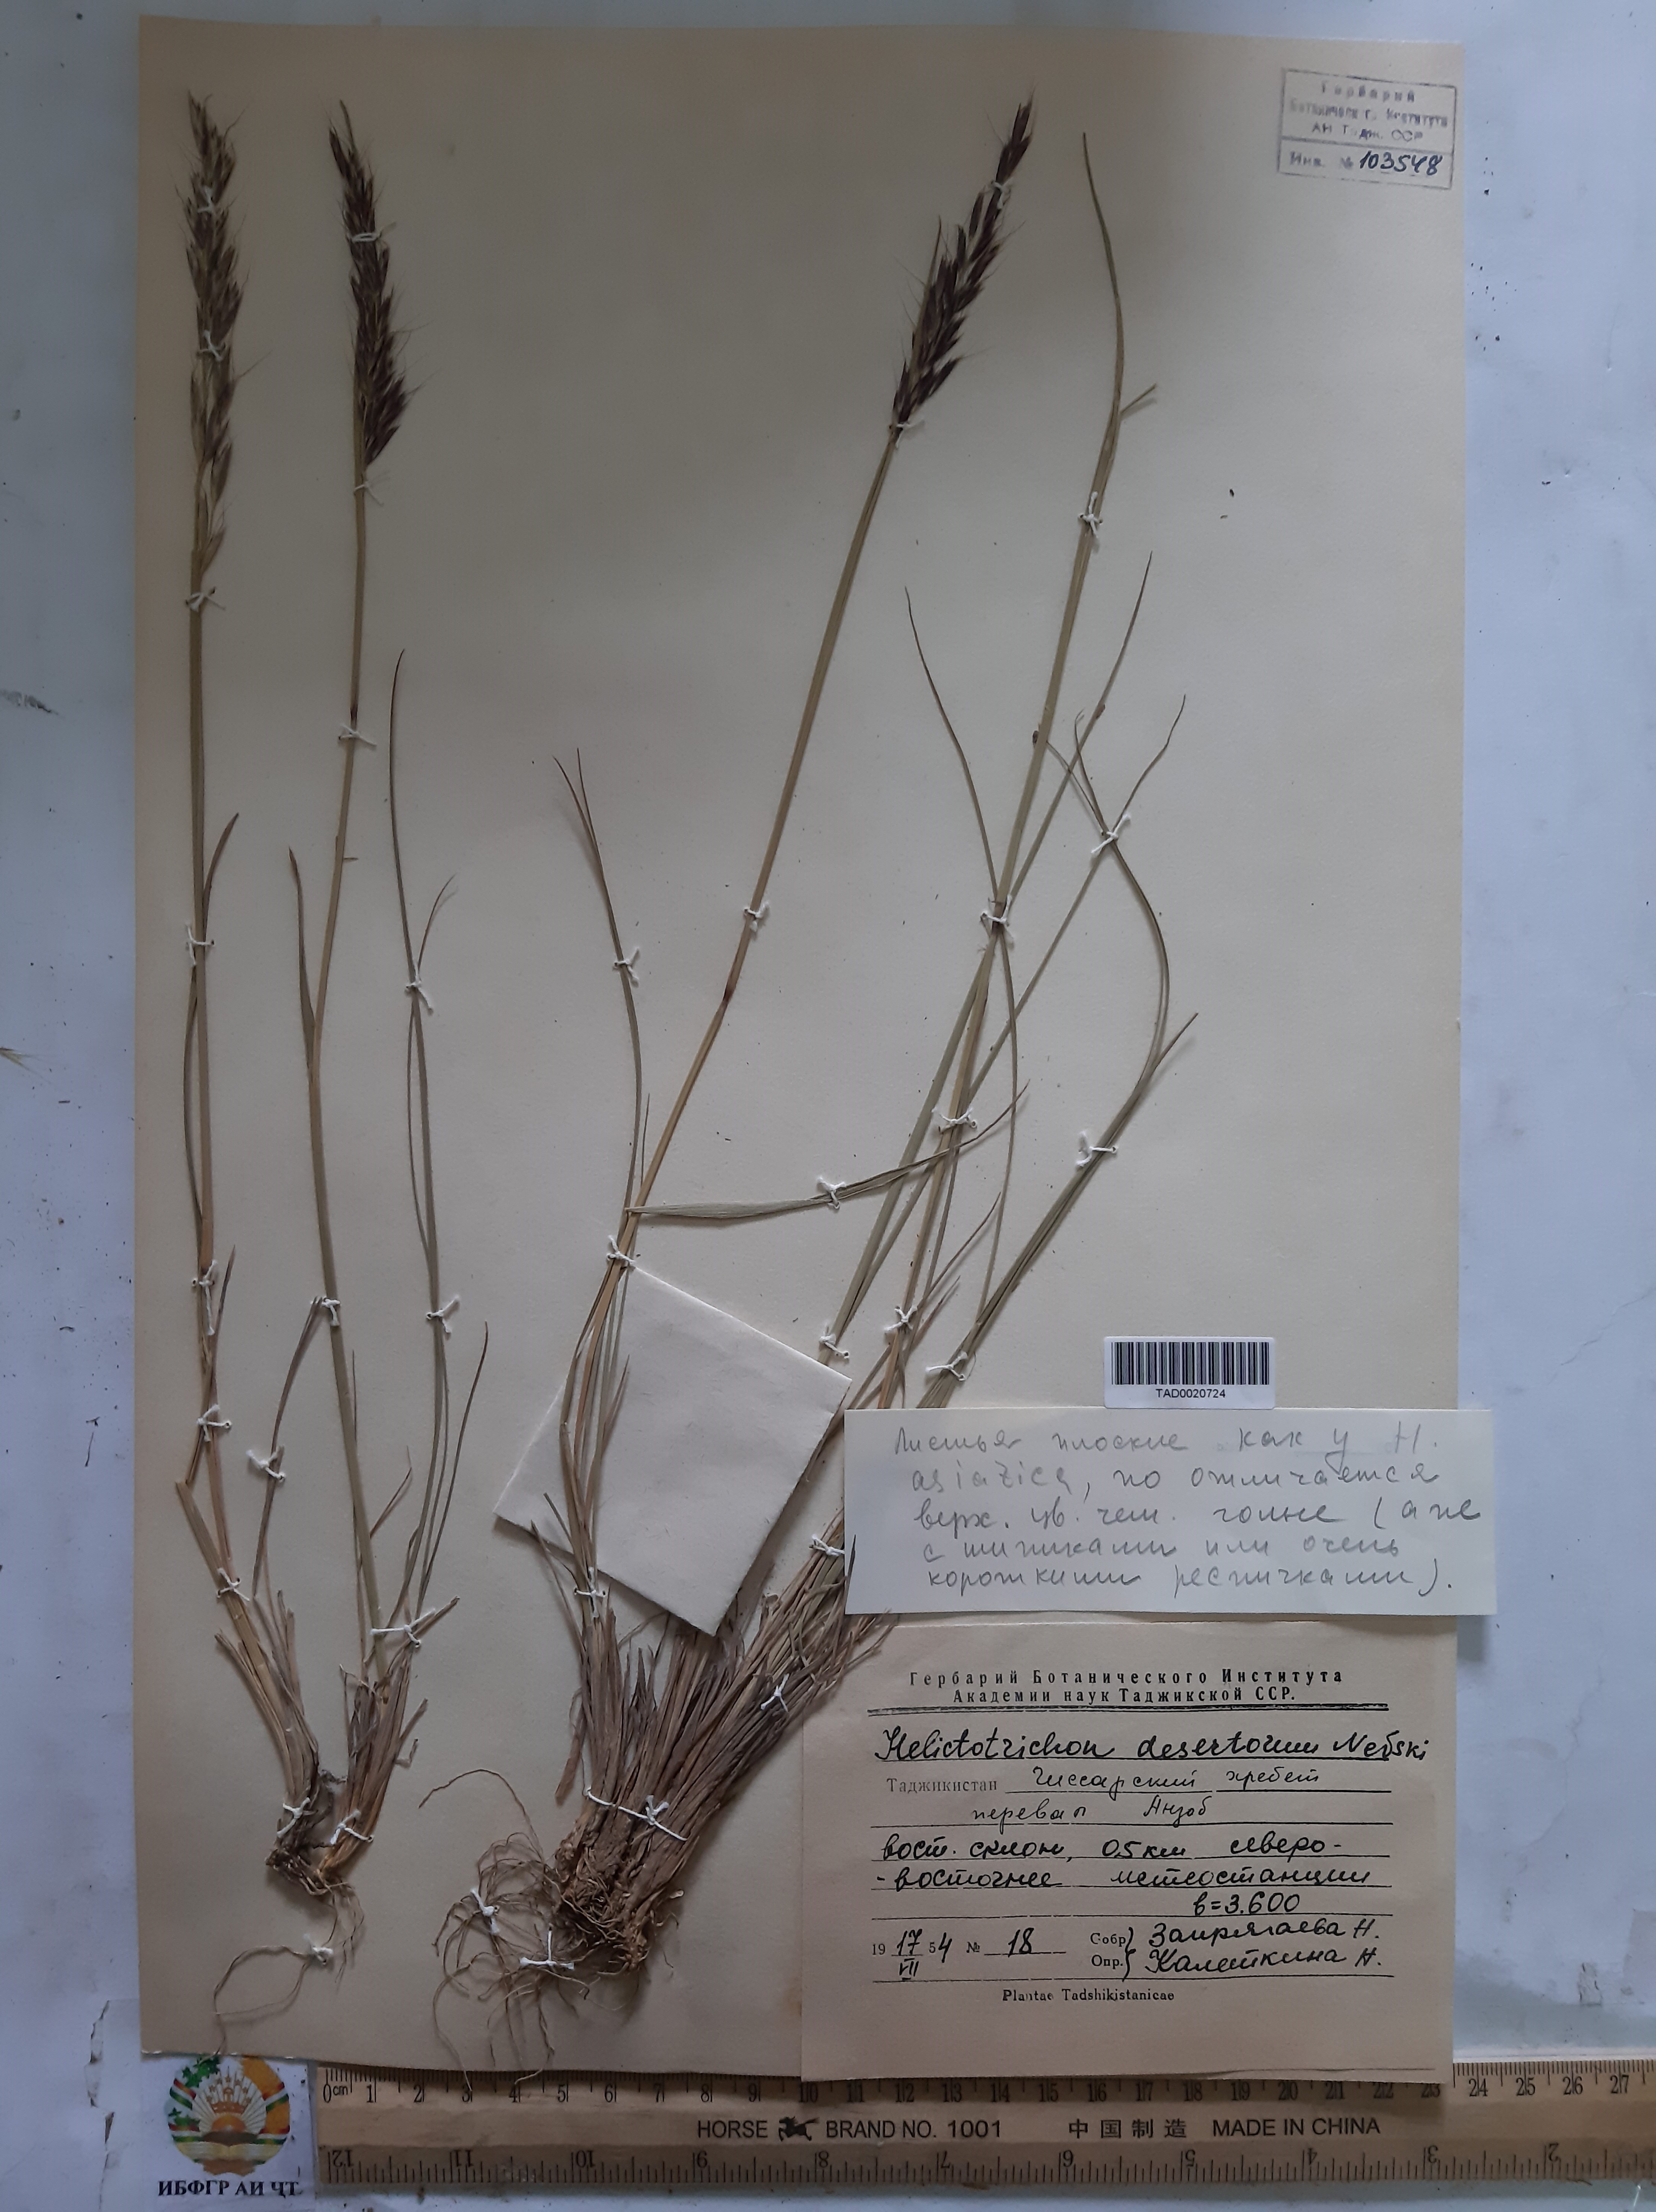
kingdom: Plantae
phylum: Tracheophyta
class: Liliopsida
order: Poales
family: Poaceae
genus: Helictotrichon
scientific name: Helictotrichon desertorum
